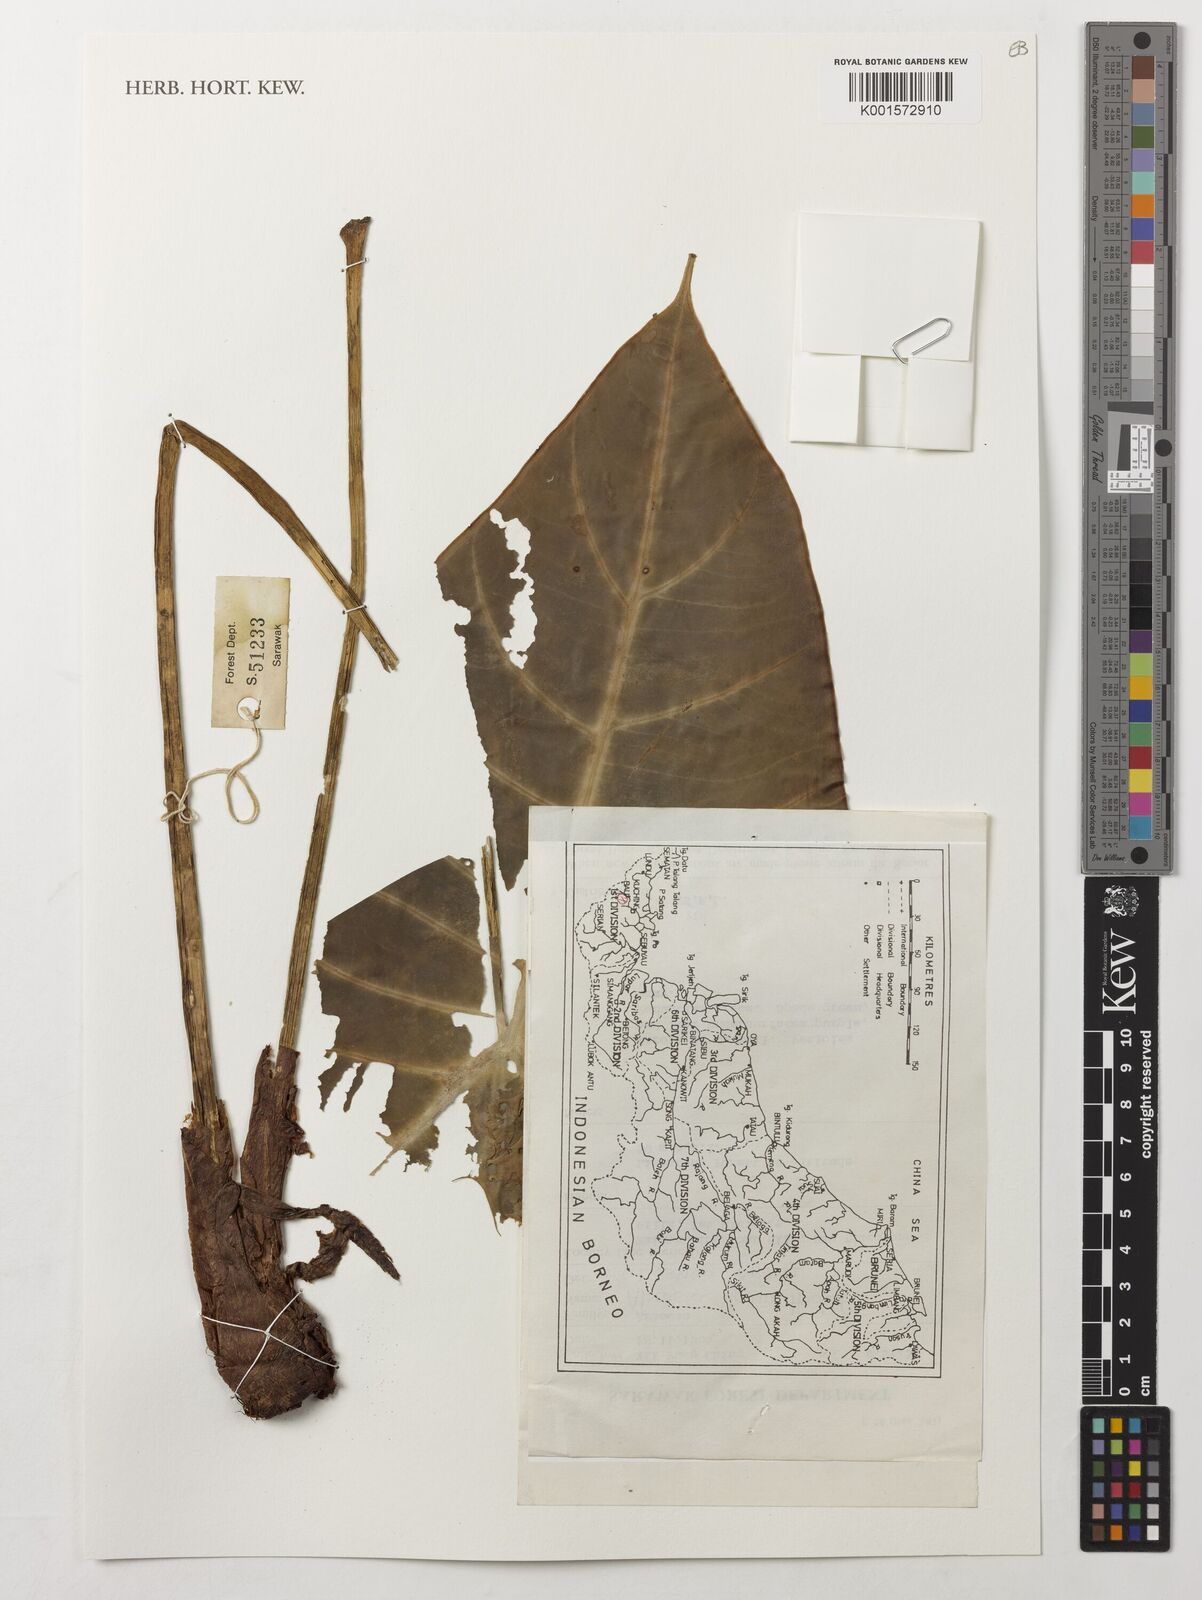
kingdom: Plantae
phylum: Tracheophyta
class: Liliopsida
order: Alismatales
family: Araceae
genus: Alocasia
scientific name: Alocasia longiloba
